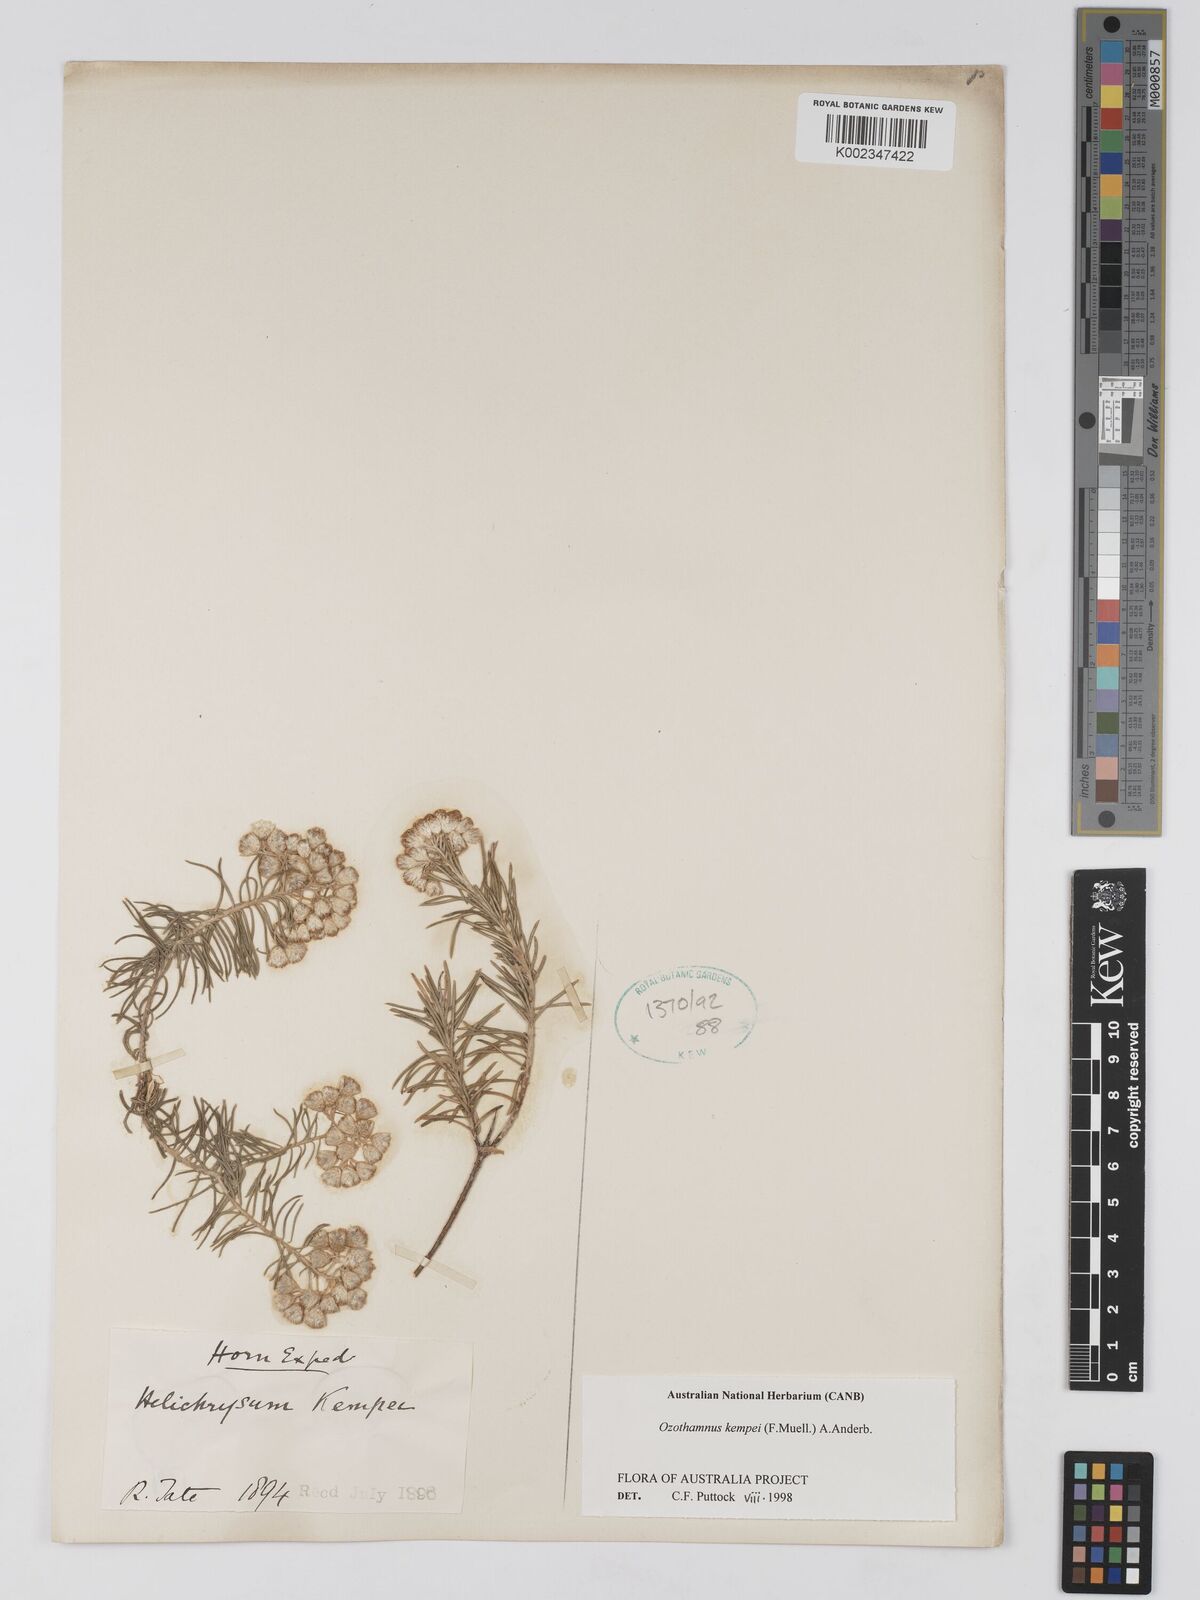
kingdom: Plantae
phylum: Tracheophyta
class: Magnoliopsida
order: Asterales
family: Asteraceae
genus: Ozothamnus
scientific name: Ozothamnus kempei
